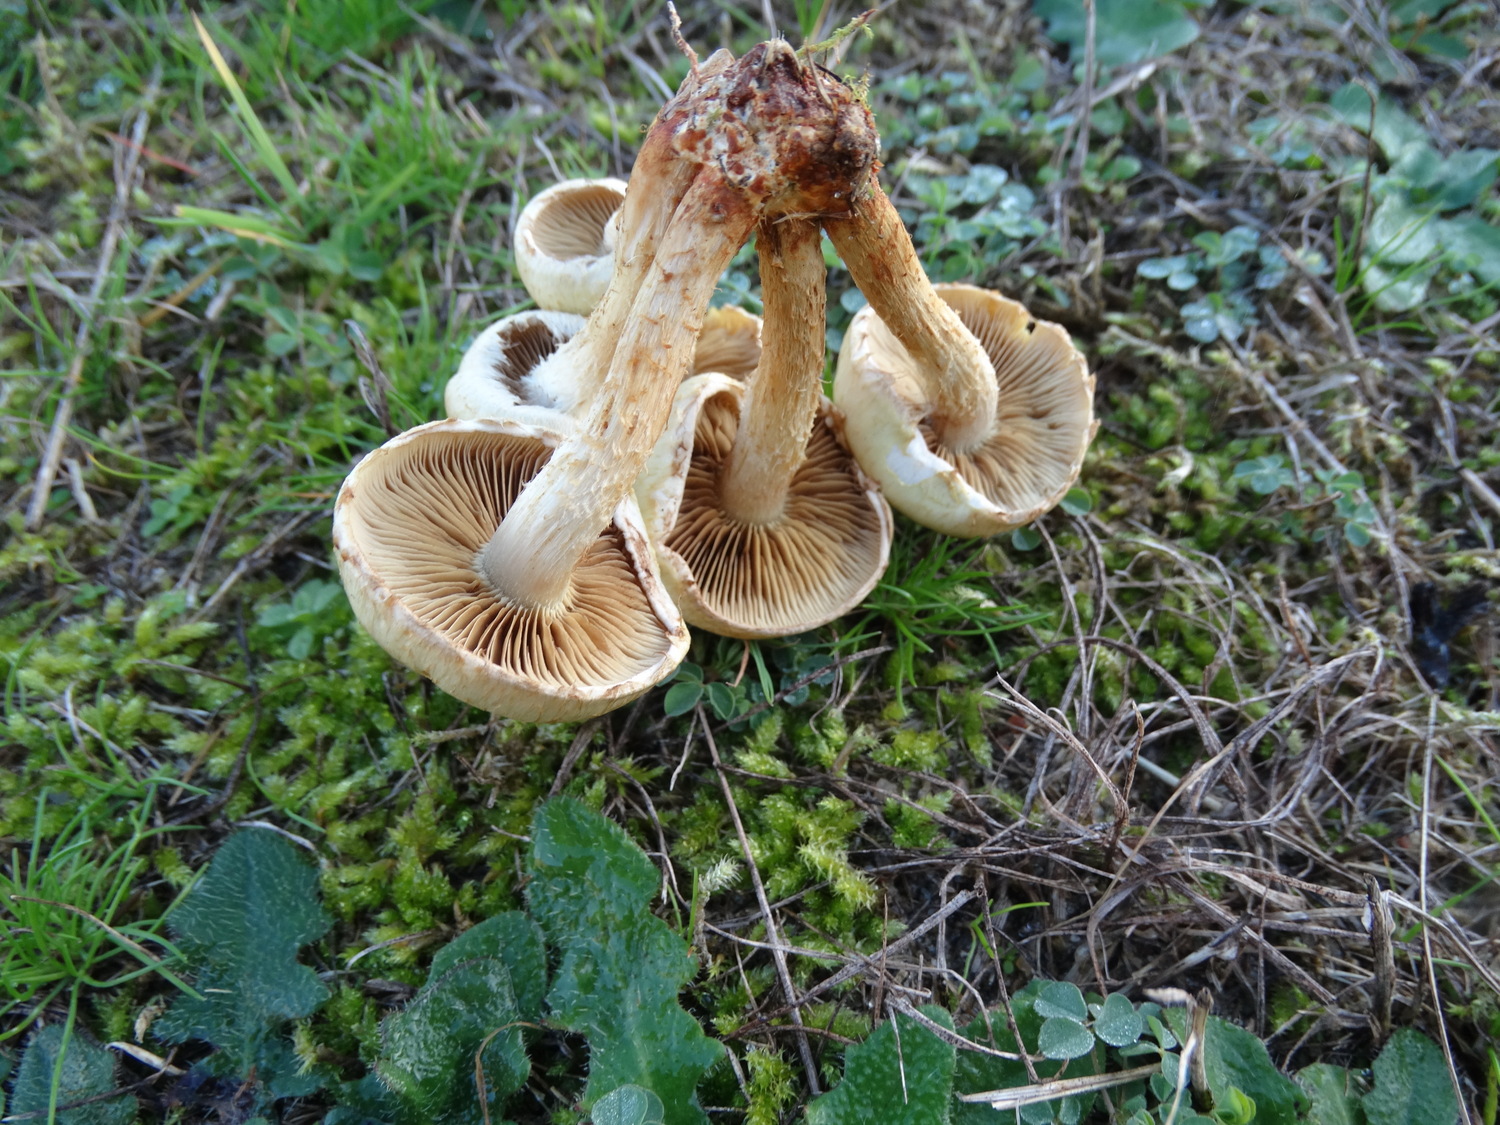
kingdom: Fungi
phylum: Basidiomycota
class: Agaricomycetes
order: Agaricales
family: Strophariaceae
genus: Pholiota
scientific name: Pholiota gummosa
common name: grøngul skælhat
